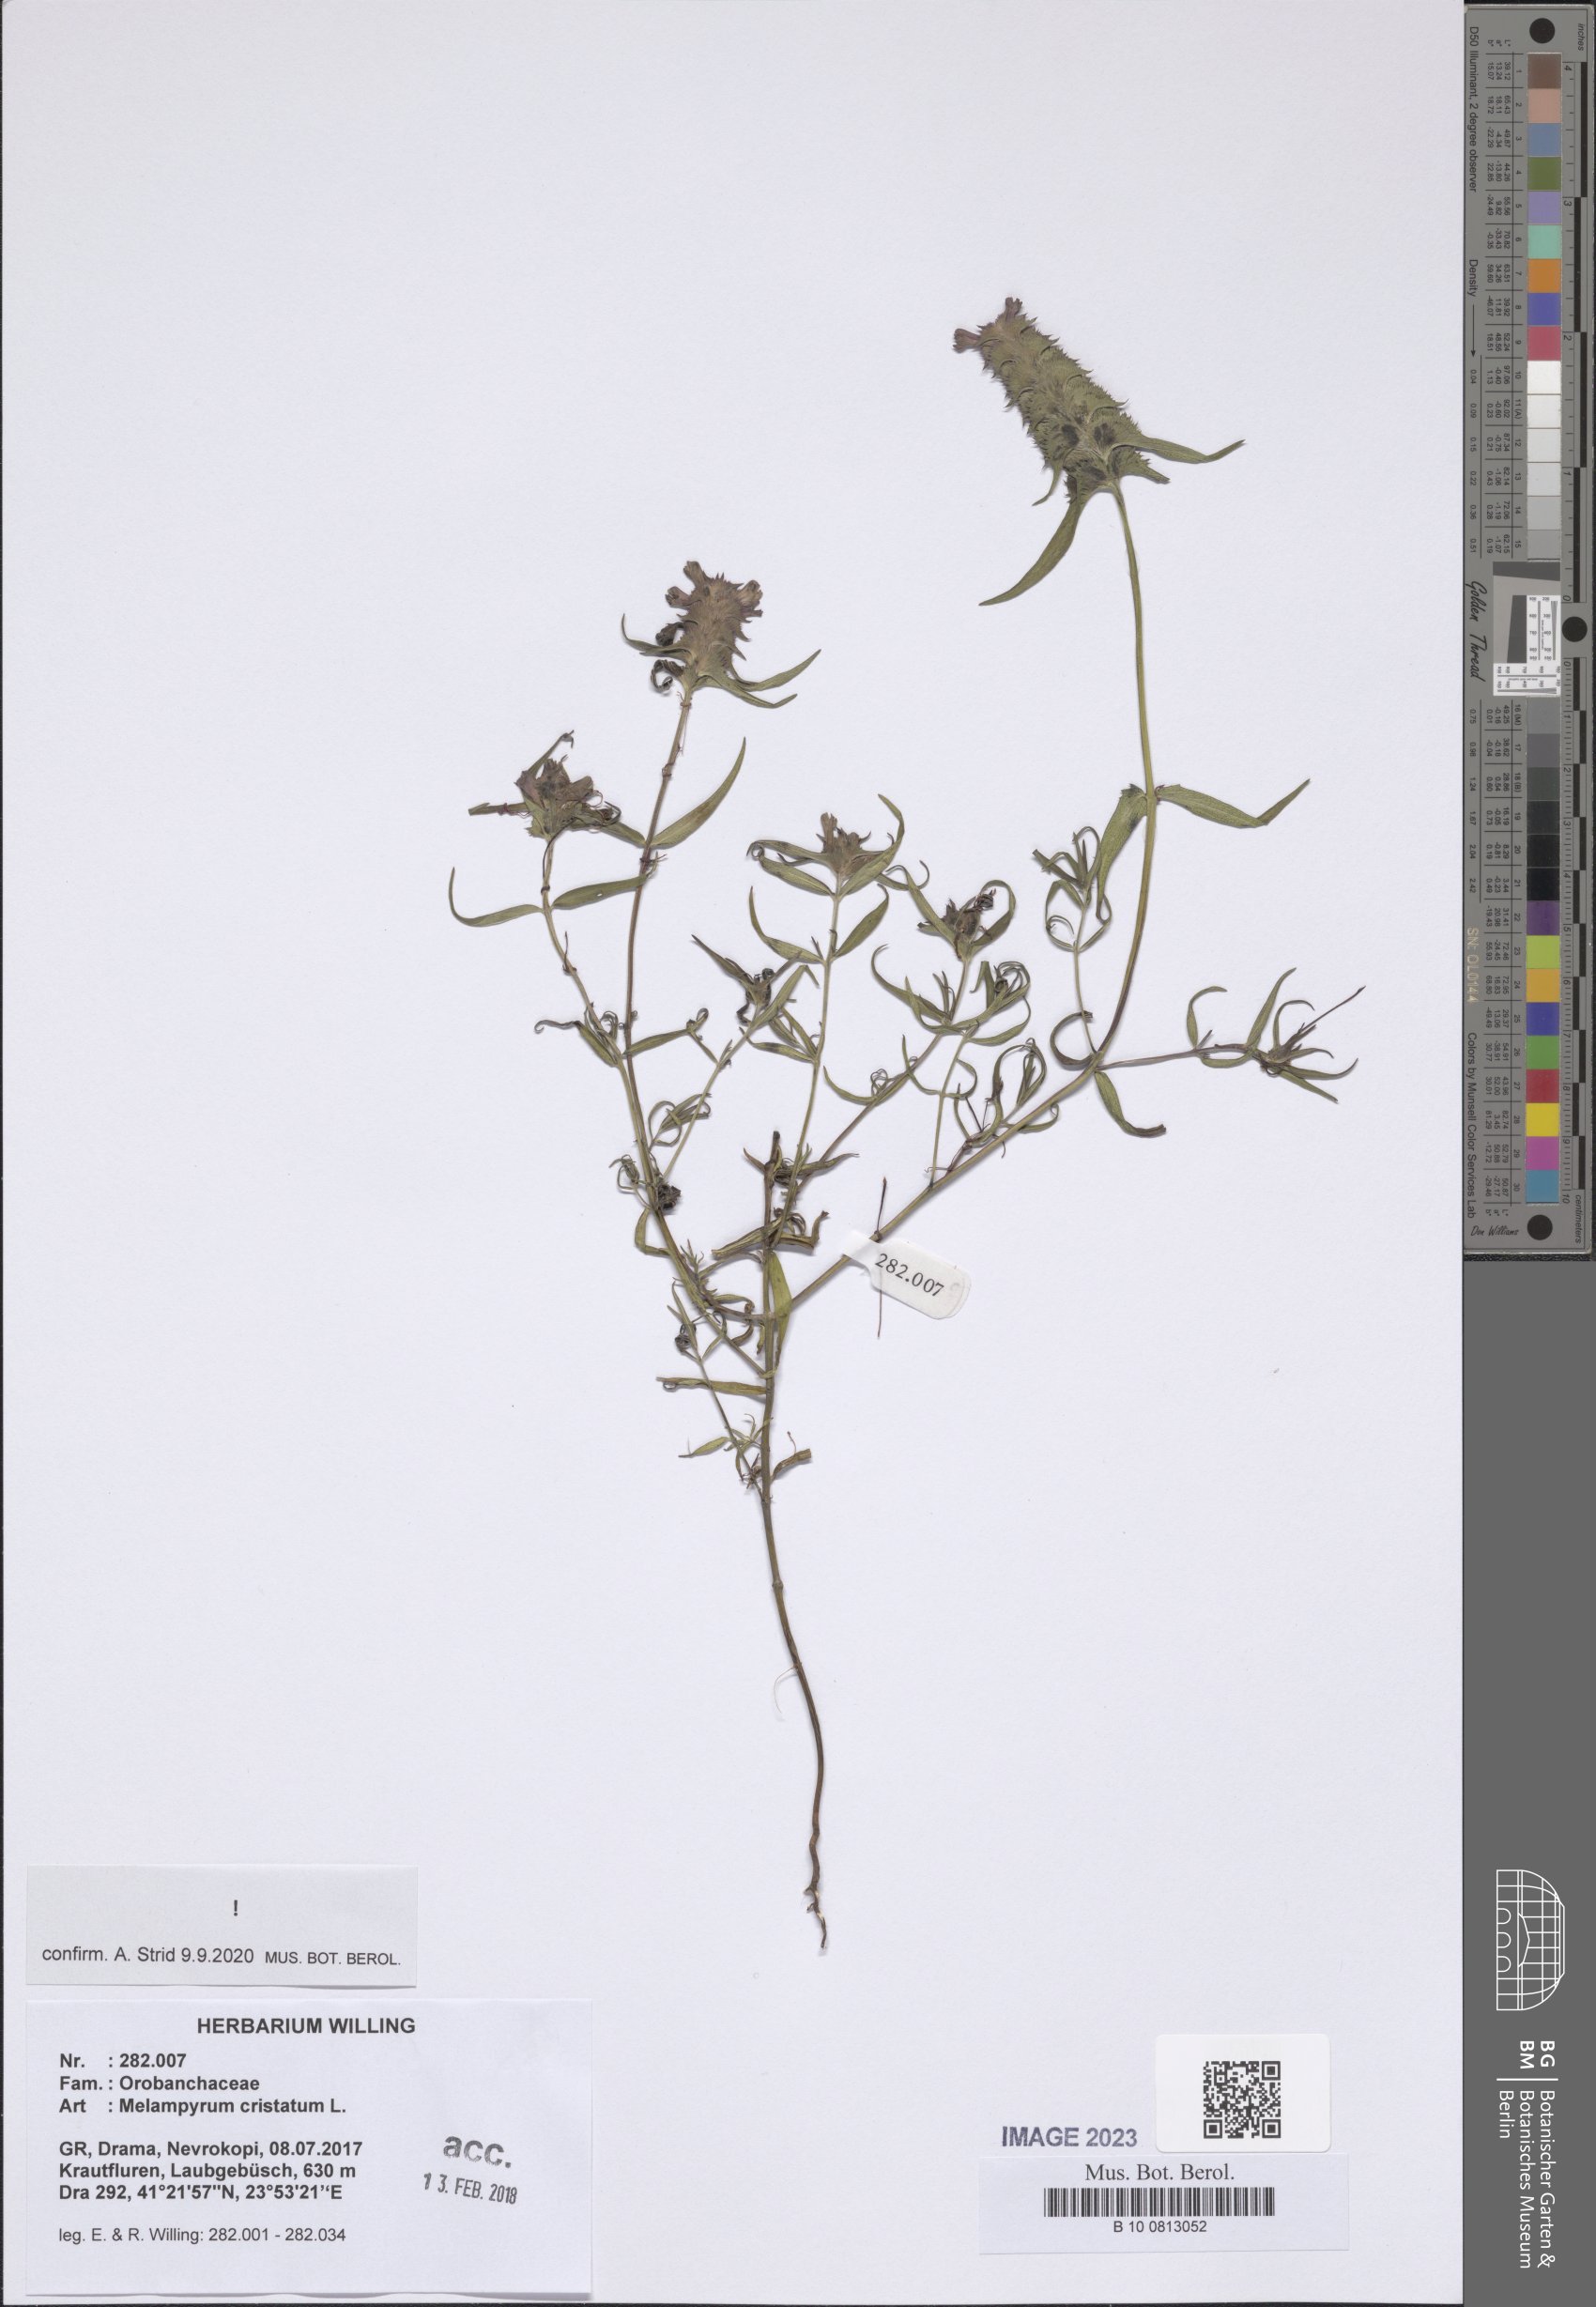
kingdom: Plantae
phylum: Tracheophyta
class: Magnoliopsida
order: Lamiales
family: Orobanchaceae
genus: Melampyrum
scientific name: Melampyrum cristatum
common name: Crested cow-wheat
